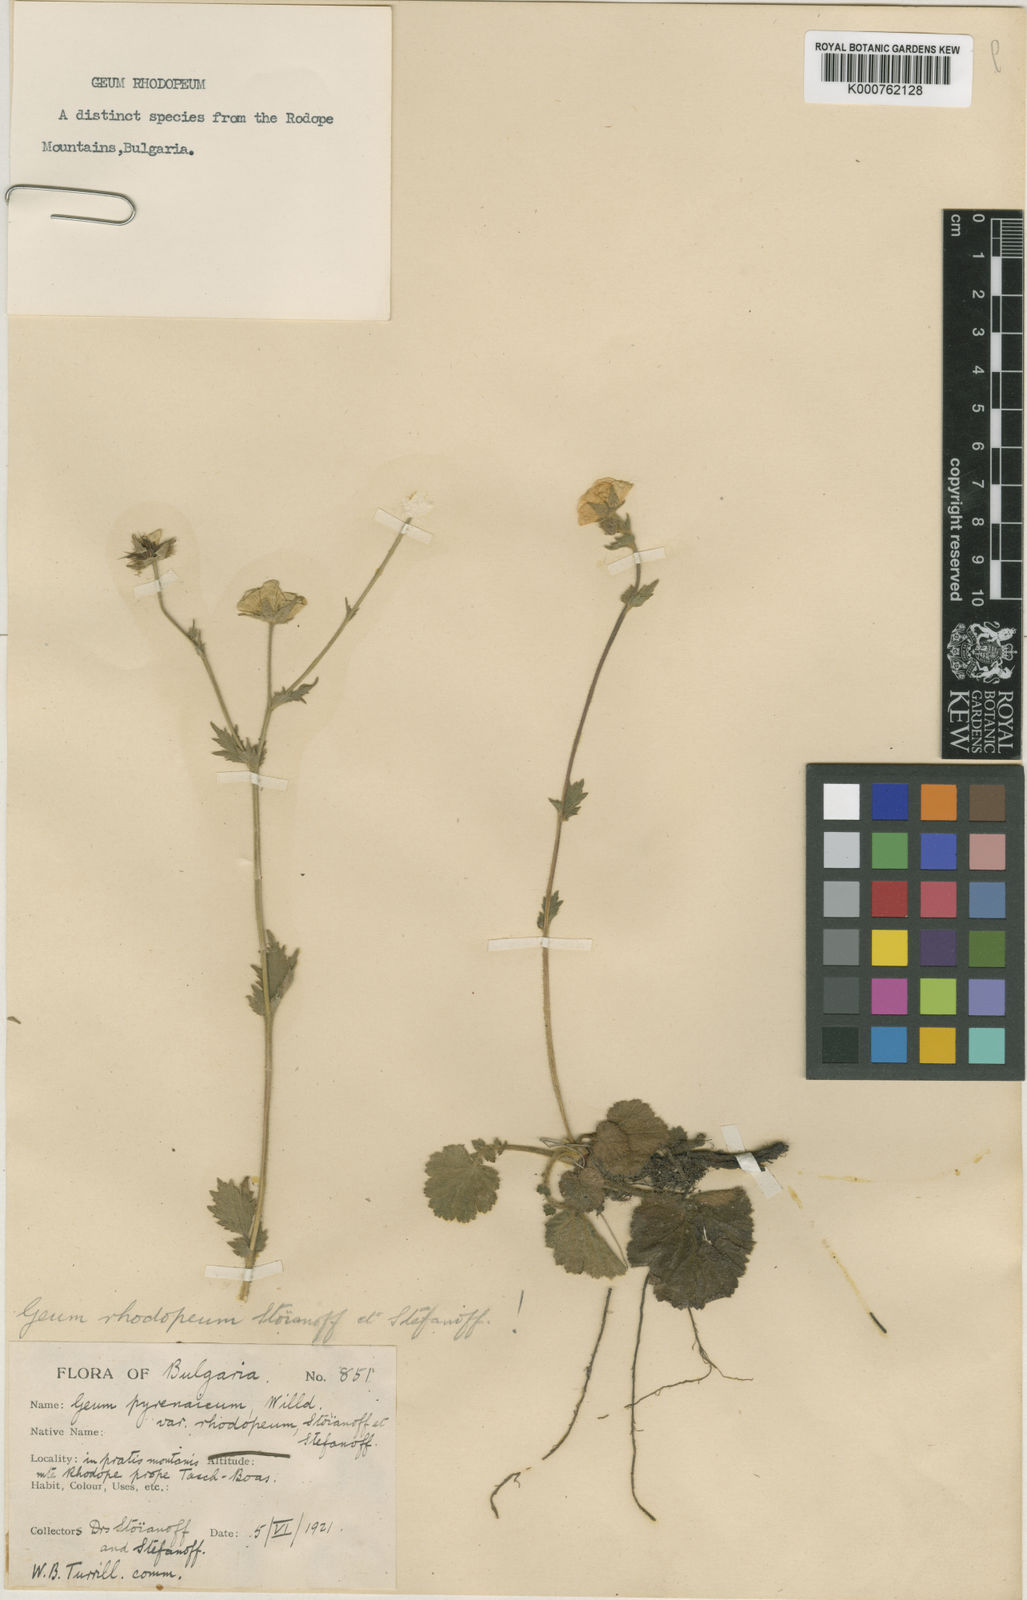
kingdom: Plantae
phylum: Tracheophyta
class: Magnoliopsida
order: Rosales
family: Rosaceae
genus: Geum
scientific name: Geum rhodopeum
